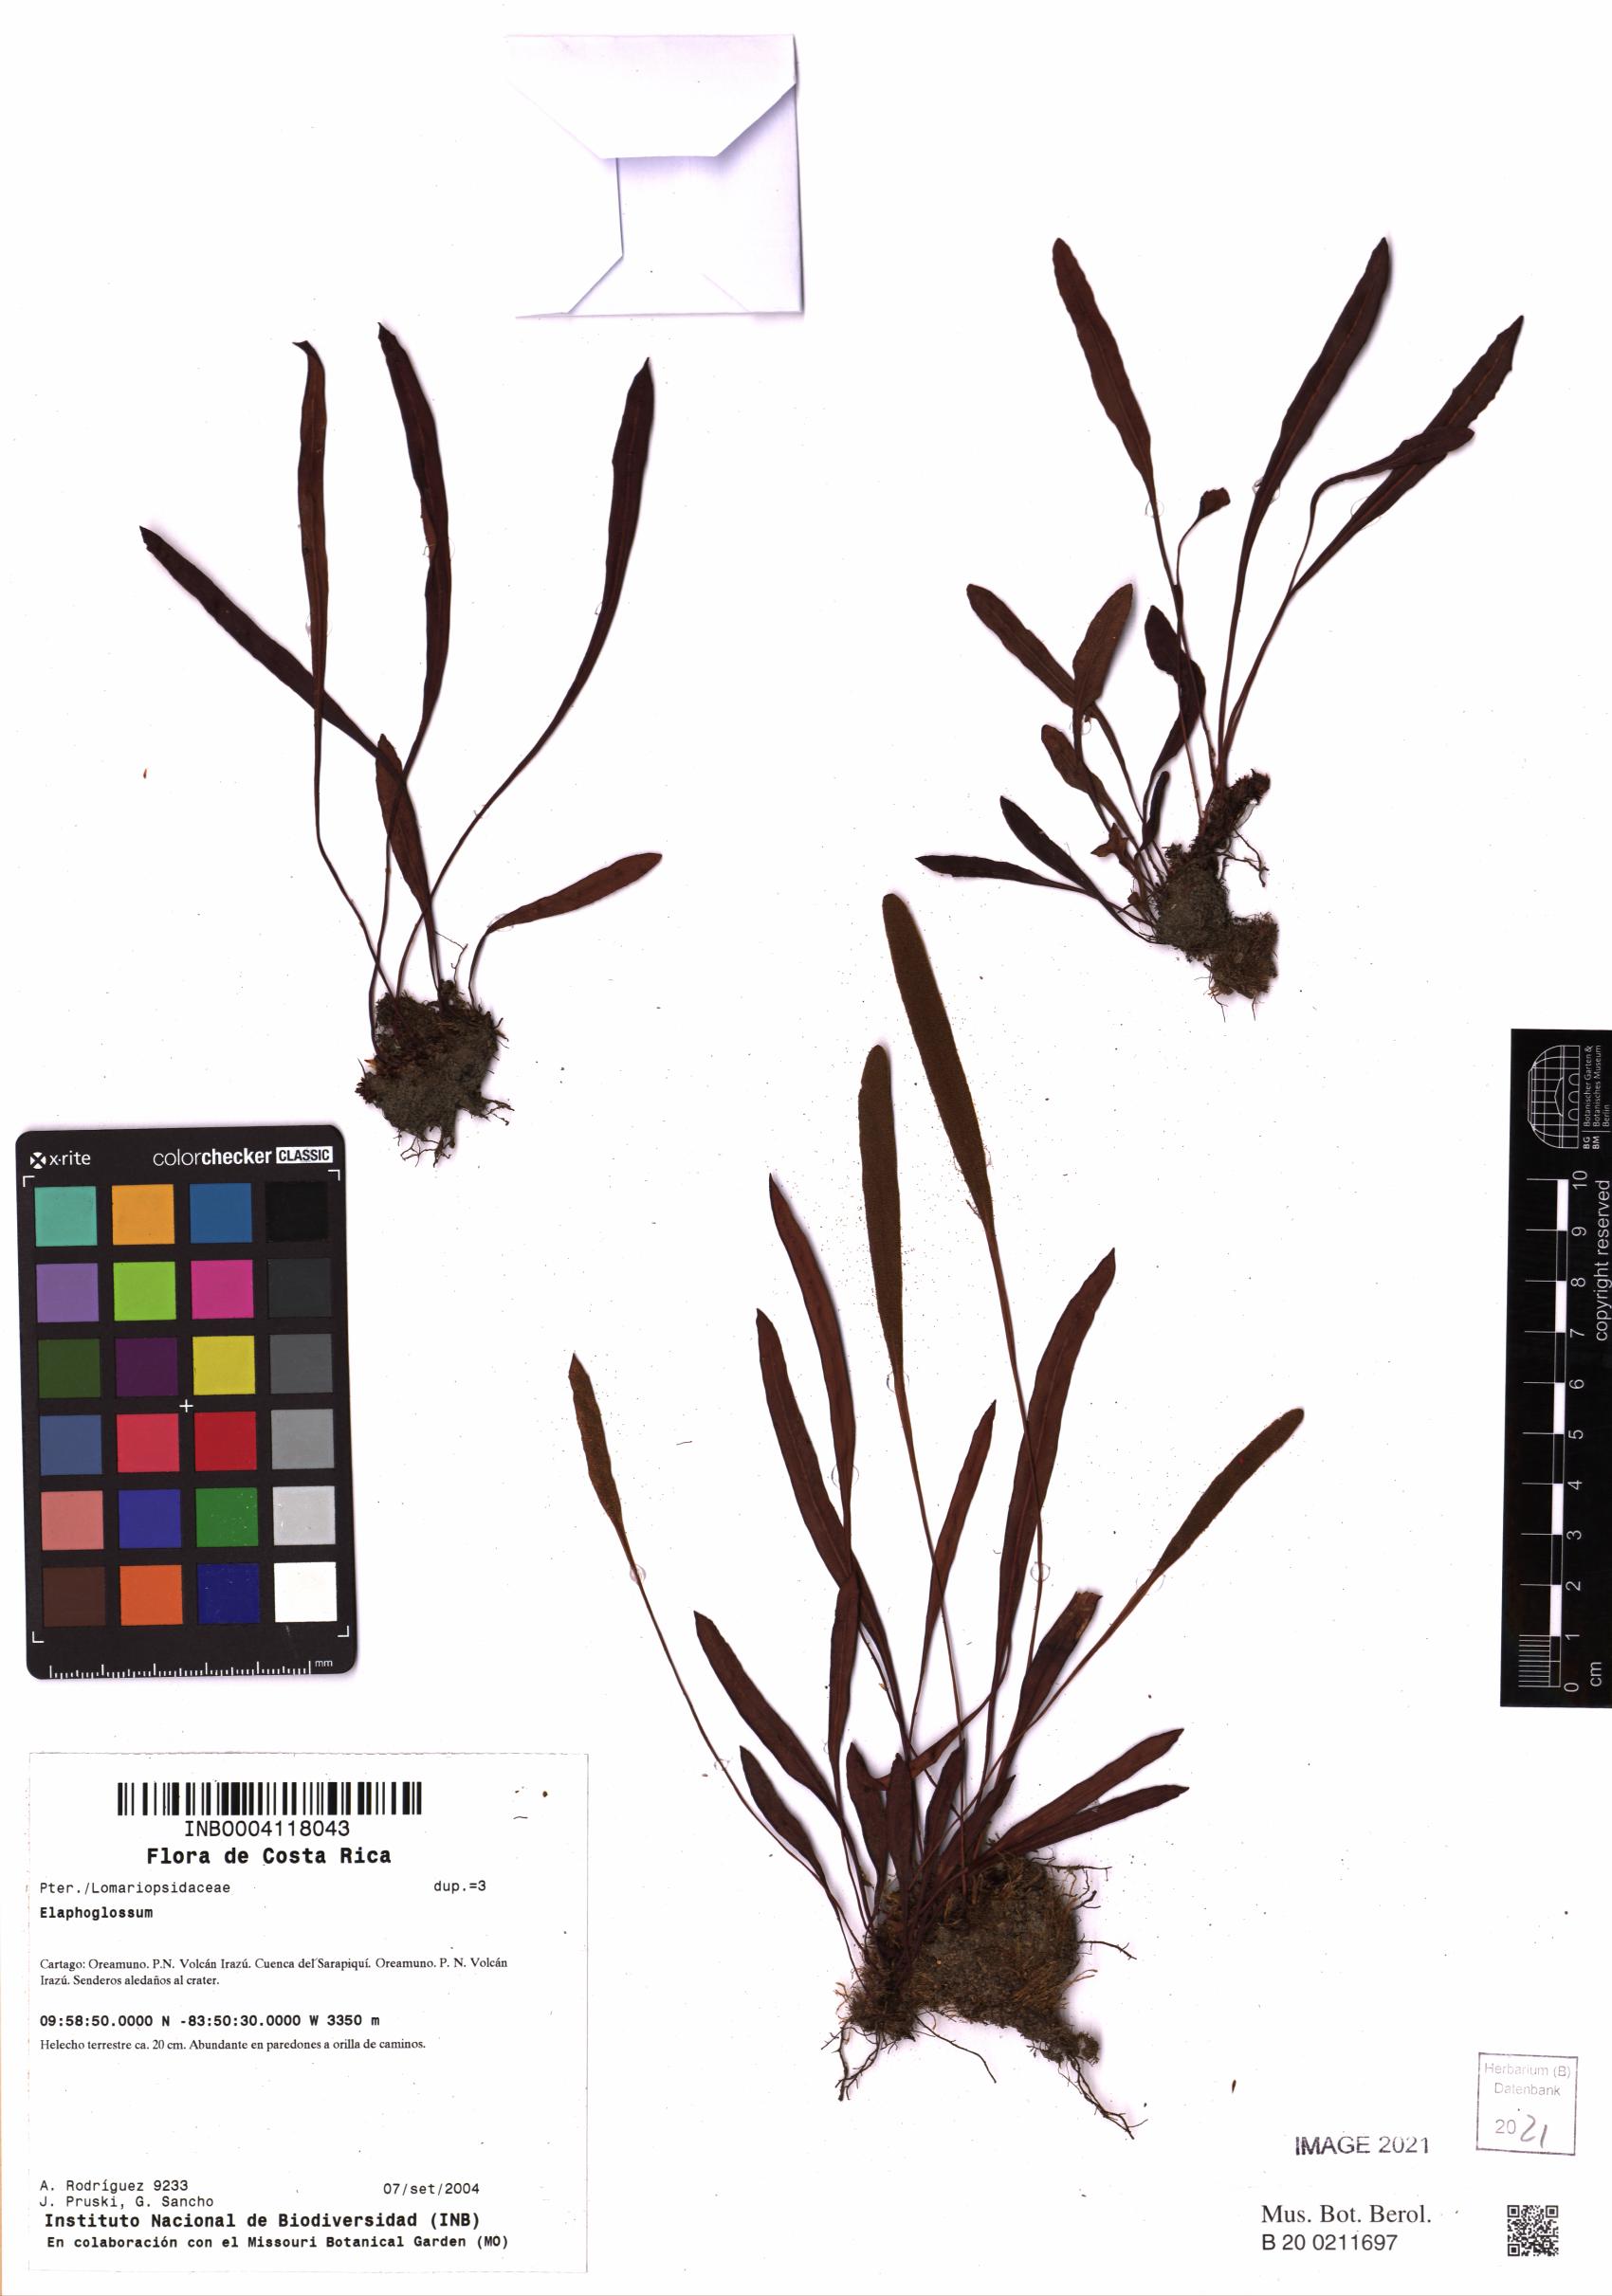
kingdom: Plantae
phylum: Tracheophyta
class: Polypodiopsida
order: Polypodiales
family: Dryopteridaceae
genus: Elaphoglossum
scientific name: Elaphoglossum
